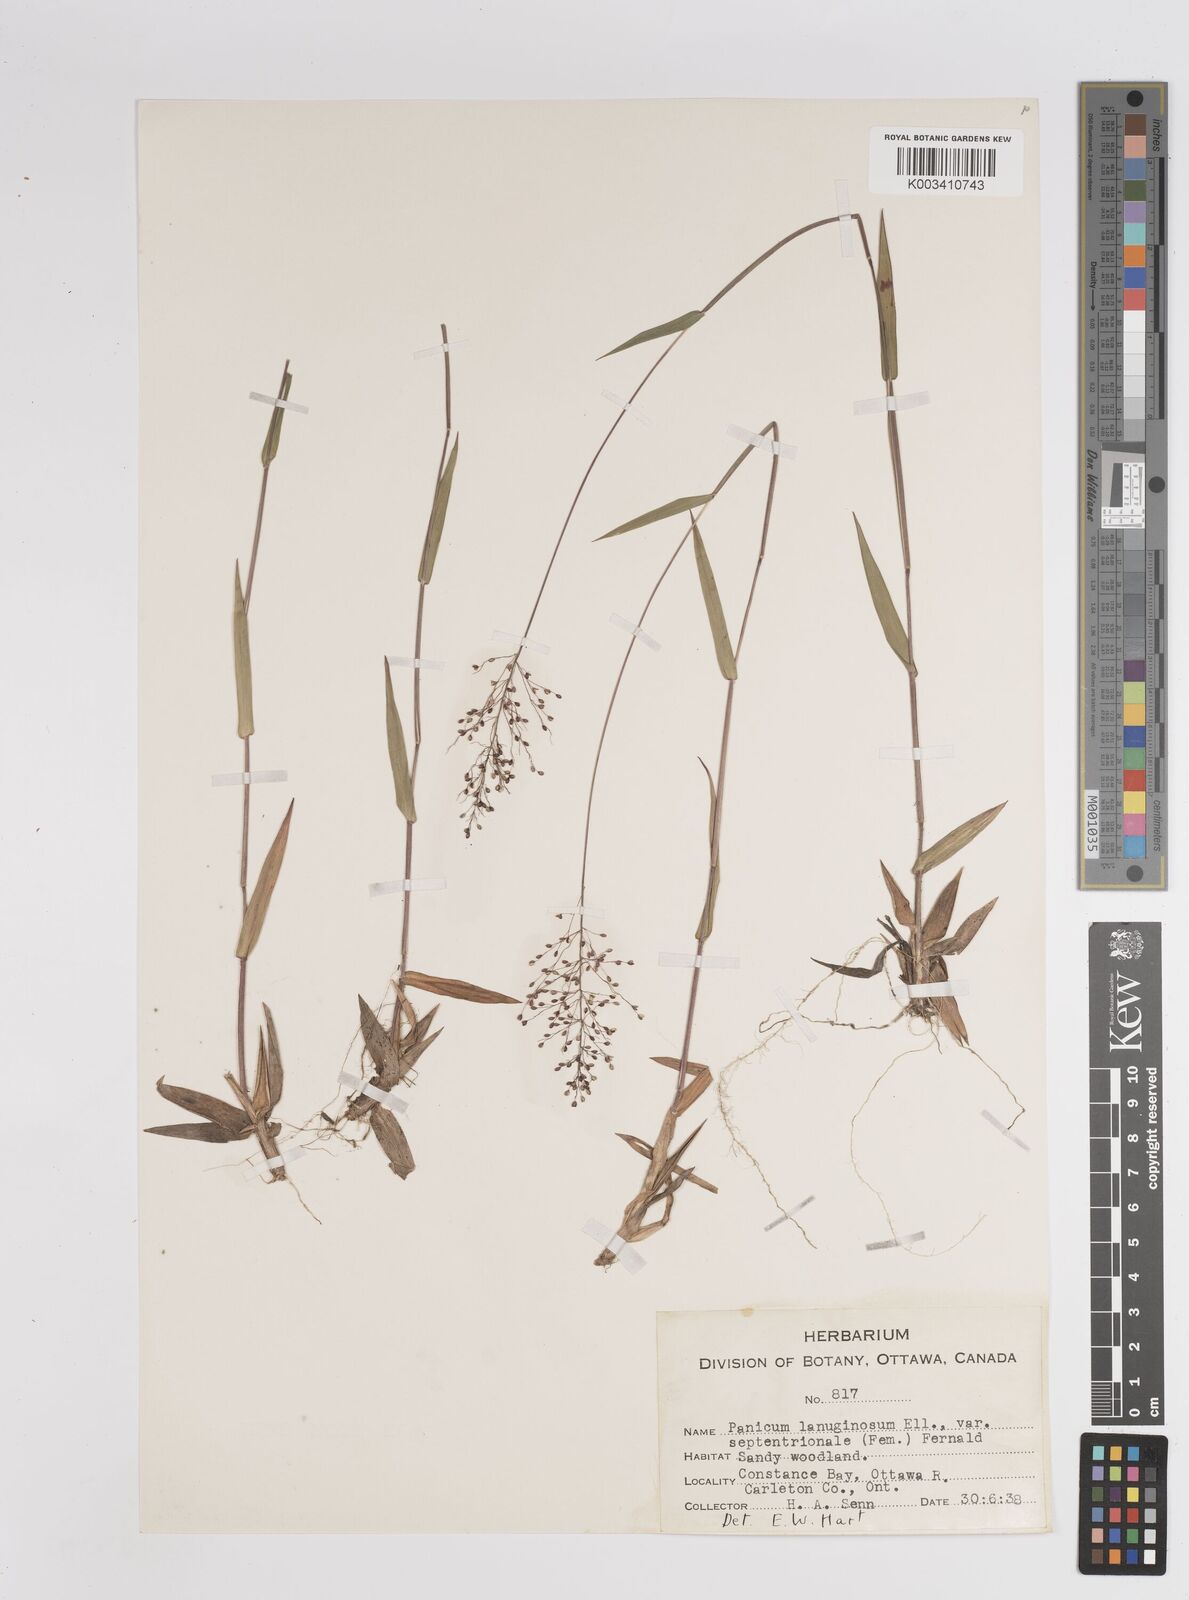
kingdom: Plantae
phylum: Tracheophyta
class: Liliopsida
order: Poales
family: Poaceae
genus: Dichanthelium
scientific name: Dichanthelium lanuginosum
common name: Woolly panicgrass
